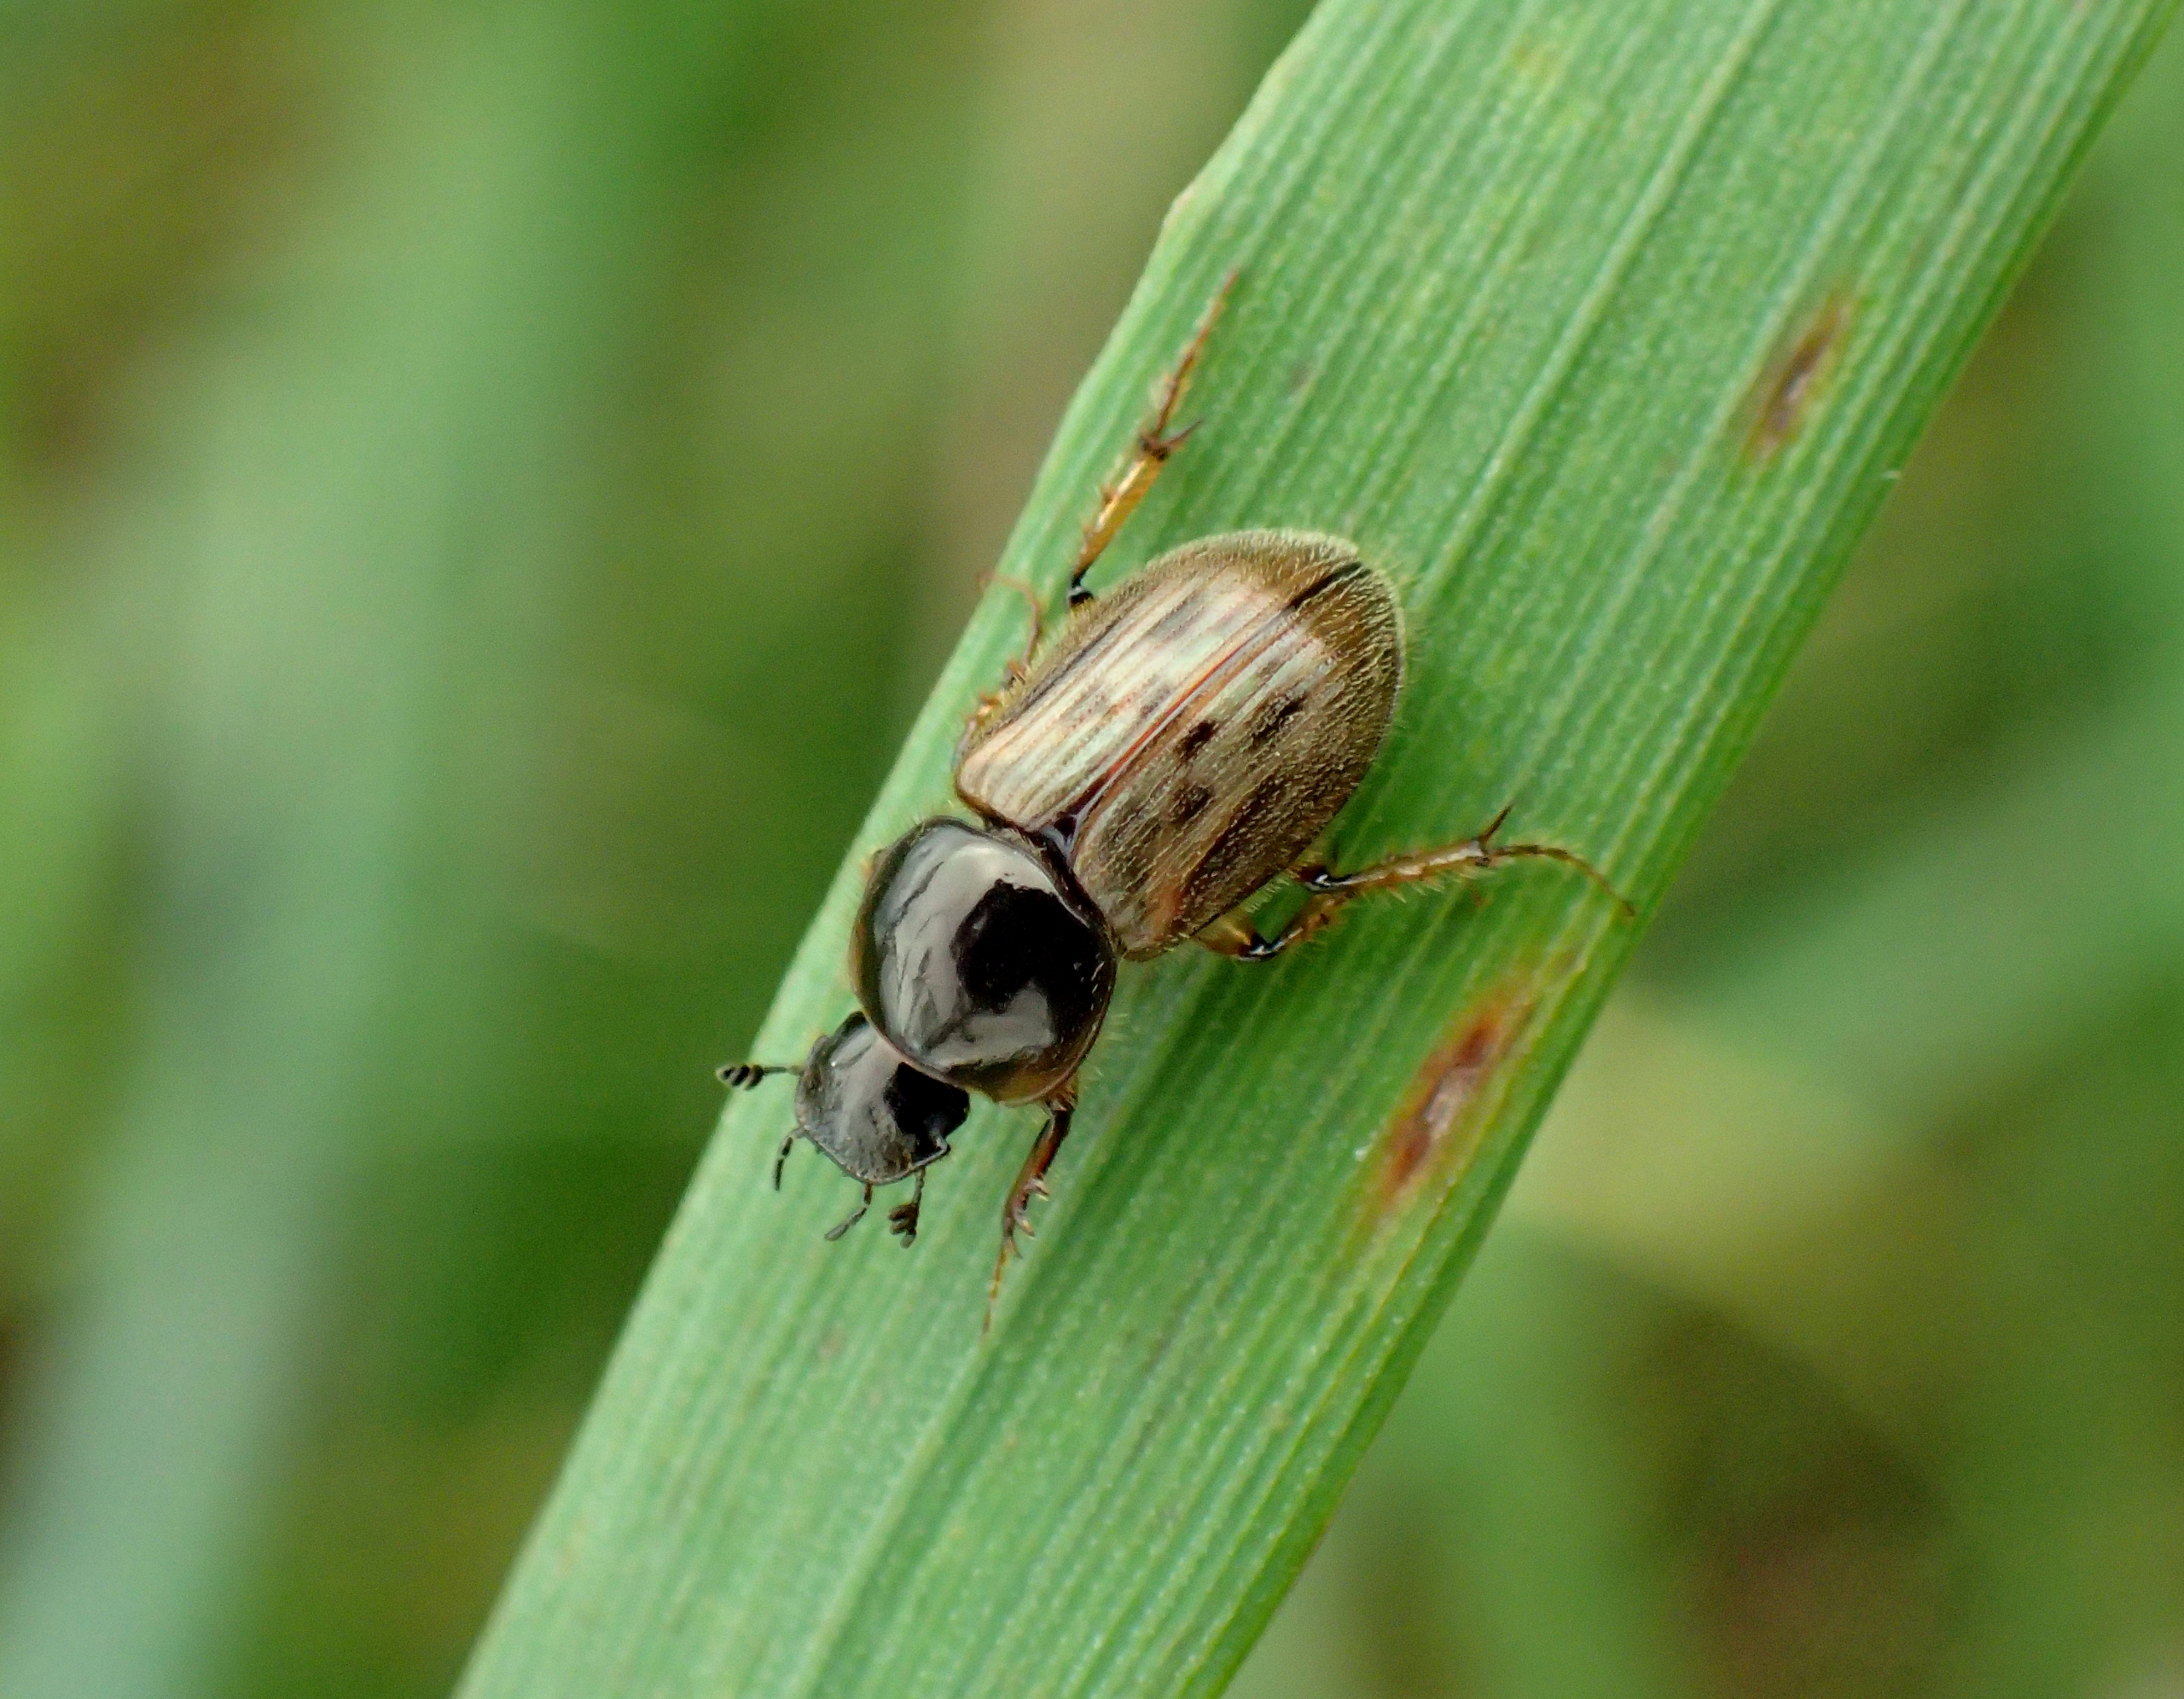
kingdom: Animalia
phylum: Arthropoda
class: Insecta
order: Coleoptera
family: Scarabaeidae
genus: Nimbus
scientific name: Nimbus contaminatus
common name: Sandhåret møgbille
